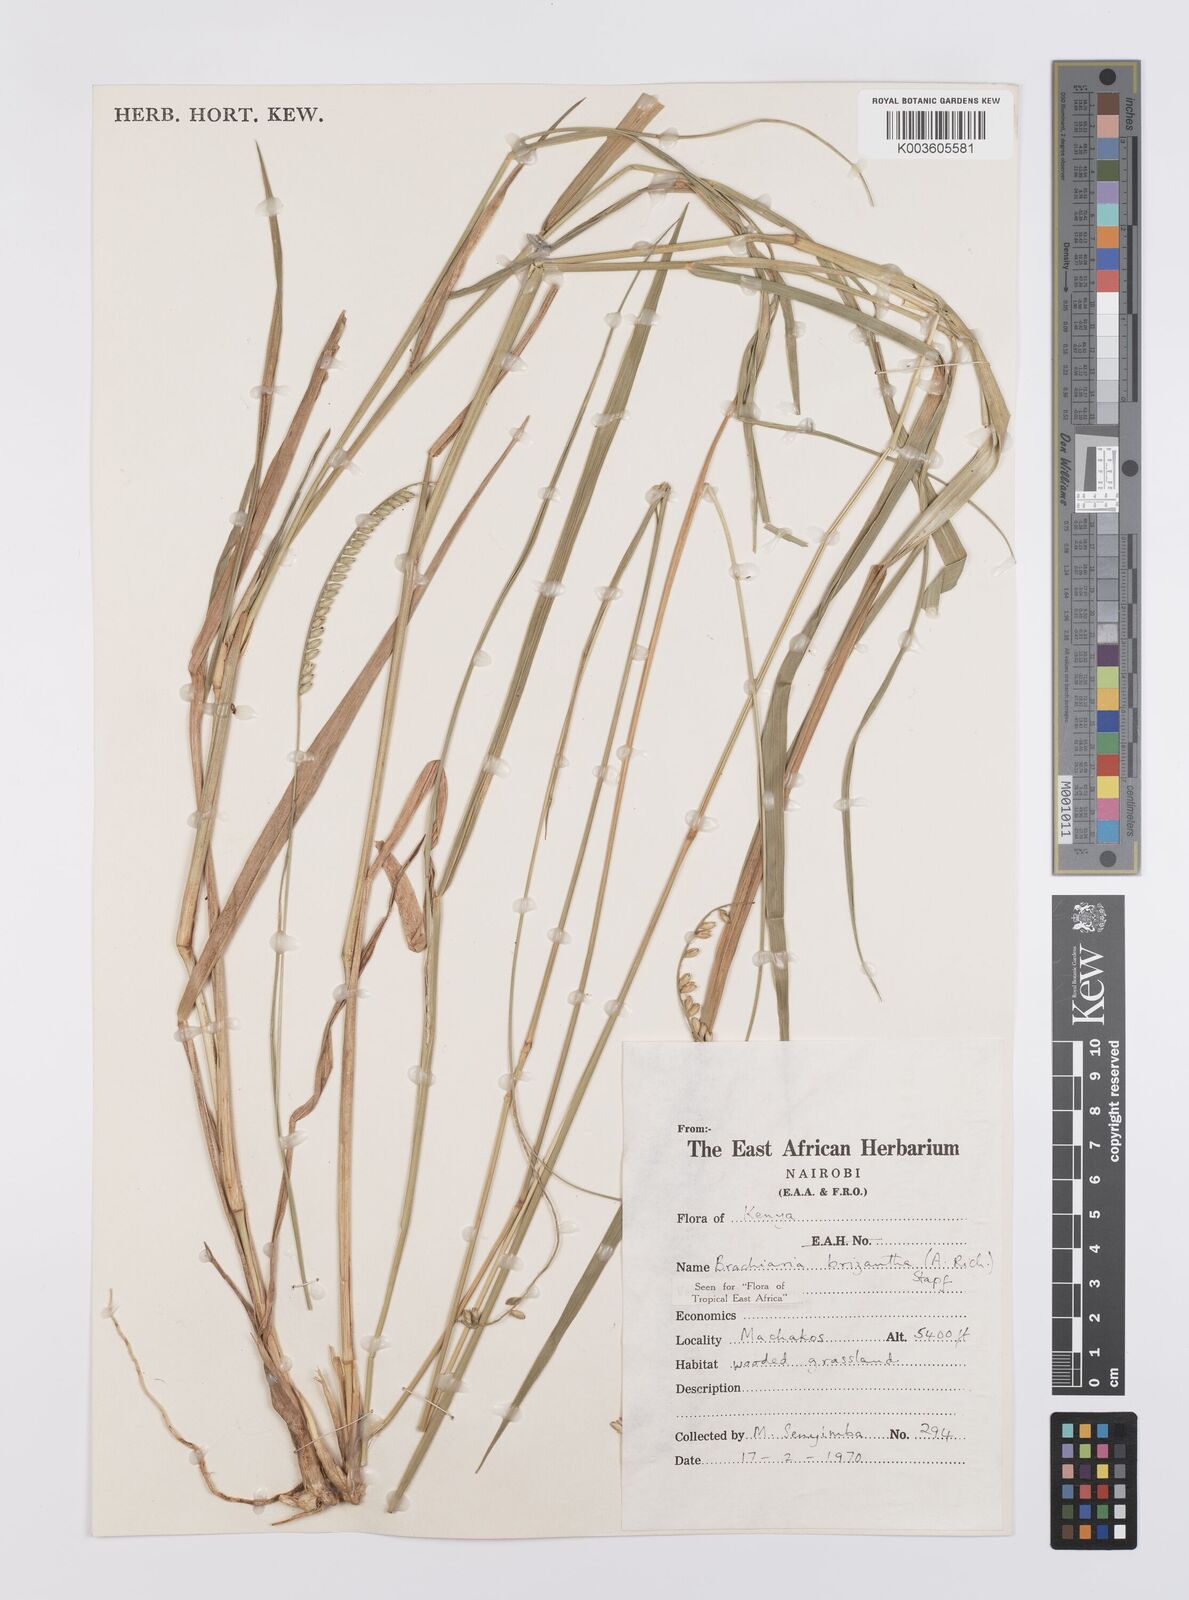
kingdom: Plantae
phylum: Tracheophyta
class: Liliopsida
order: Poales
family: Poaceae
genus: Urochloa
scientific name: Urochloa brizantha
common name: Palisade signalgrass
